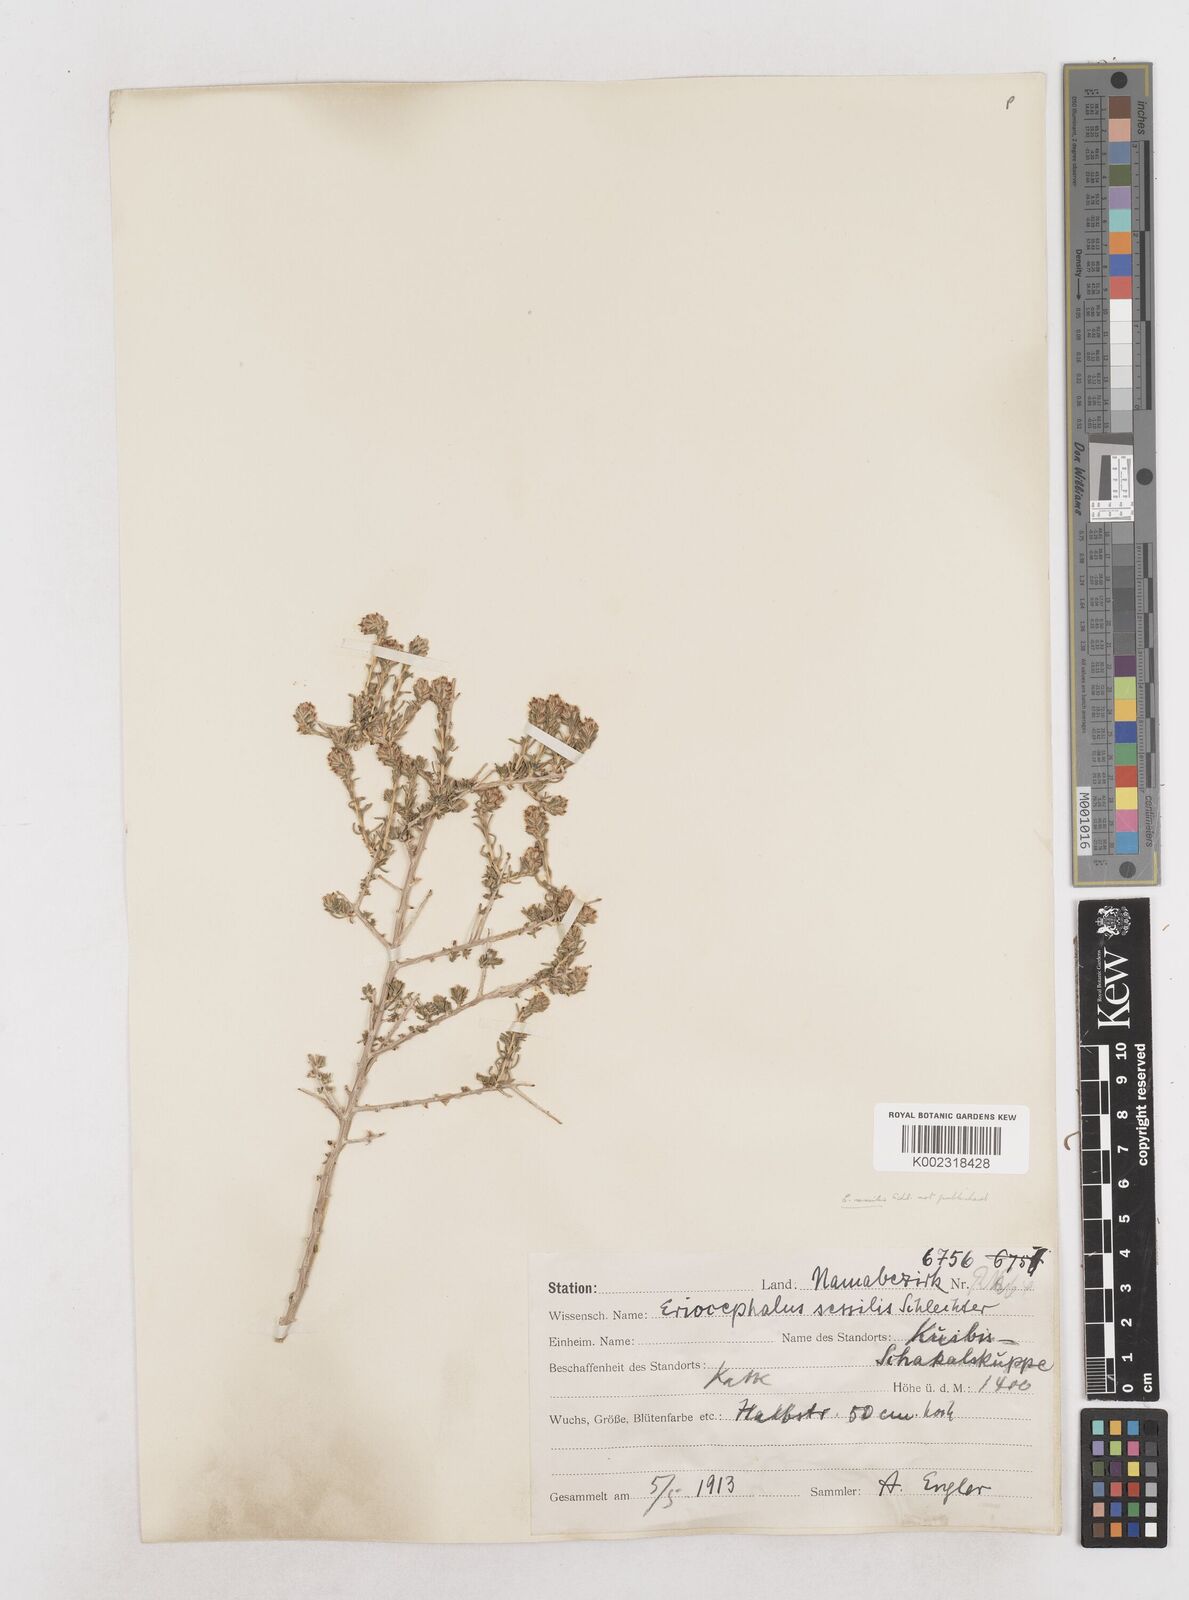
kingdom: Plantae
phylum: Tracheophyta
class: Magnoliopsida
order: Asterales
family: Asteraceae
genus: Eriocephalus
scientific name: Eriocephalus
